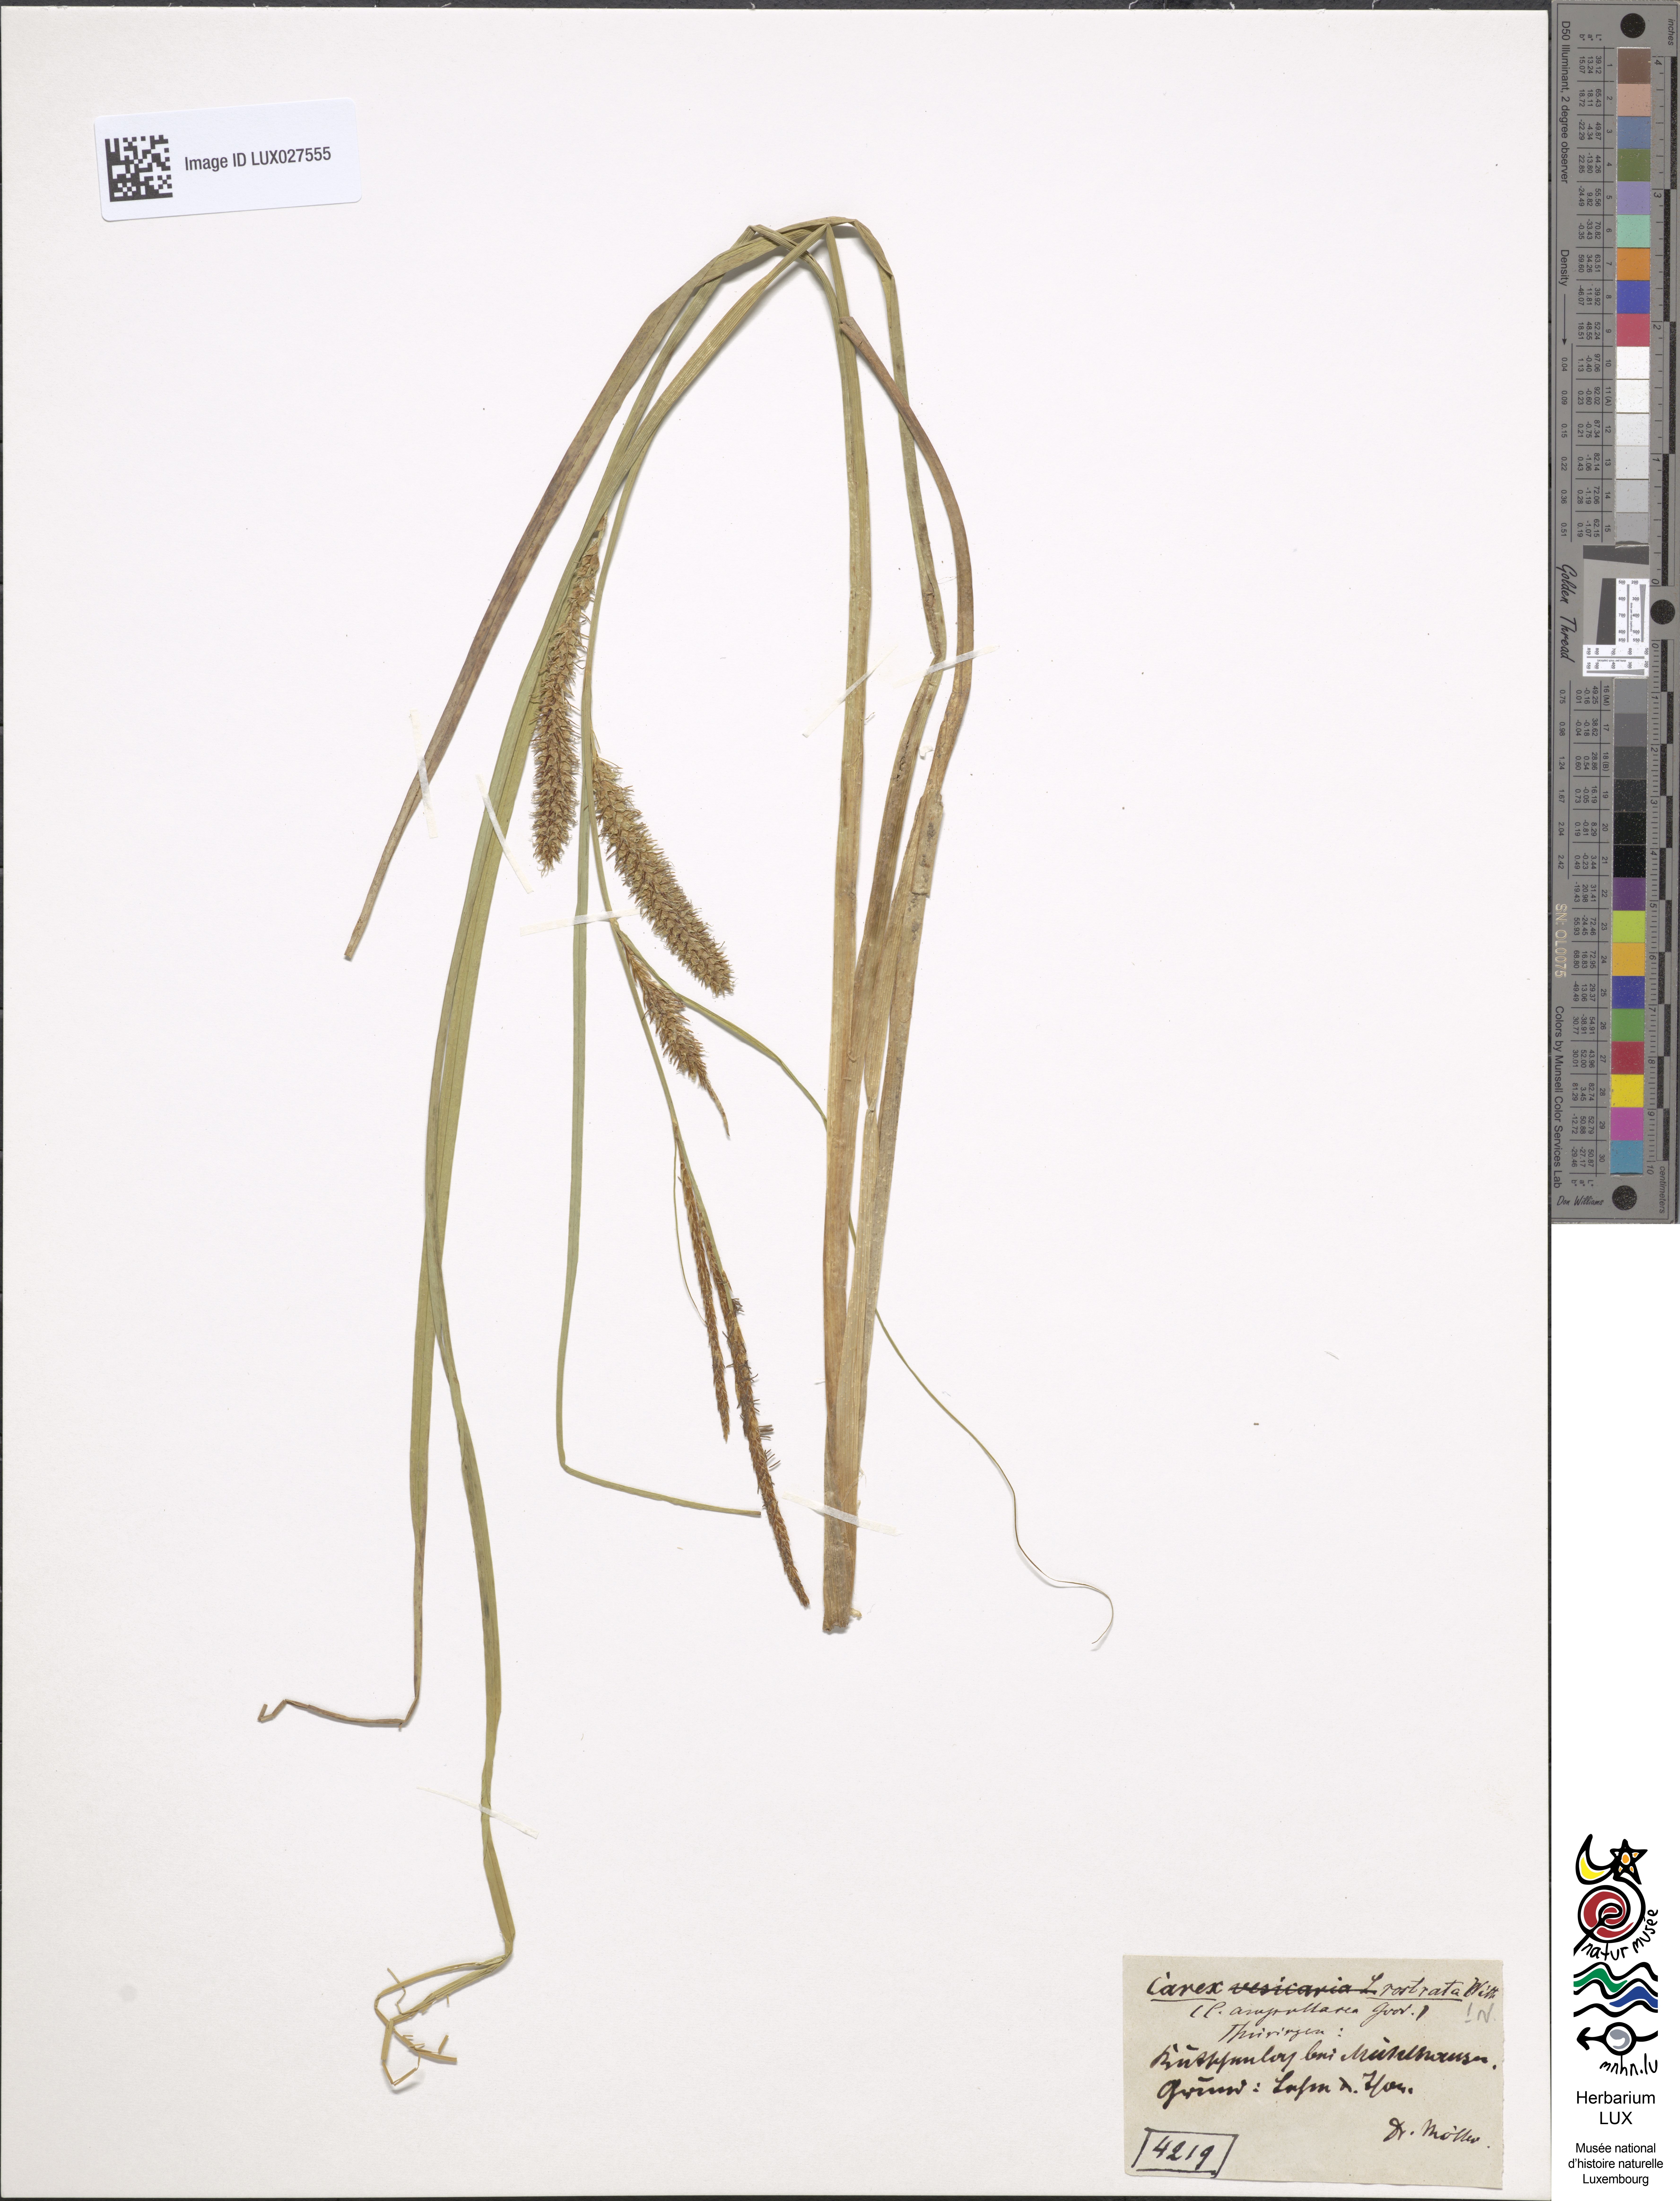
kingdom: Plantae
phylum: Tracheophyta
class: Liliopsida
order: Poales
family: Cyperaceae
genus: Carex
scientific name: Carex rostrata
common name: Bottle sedge
